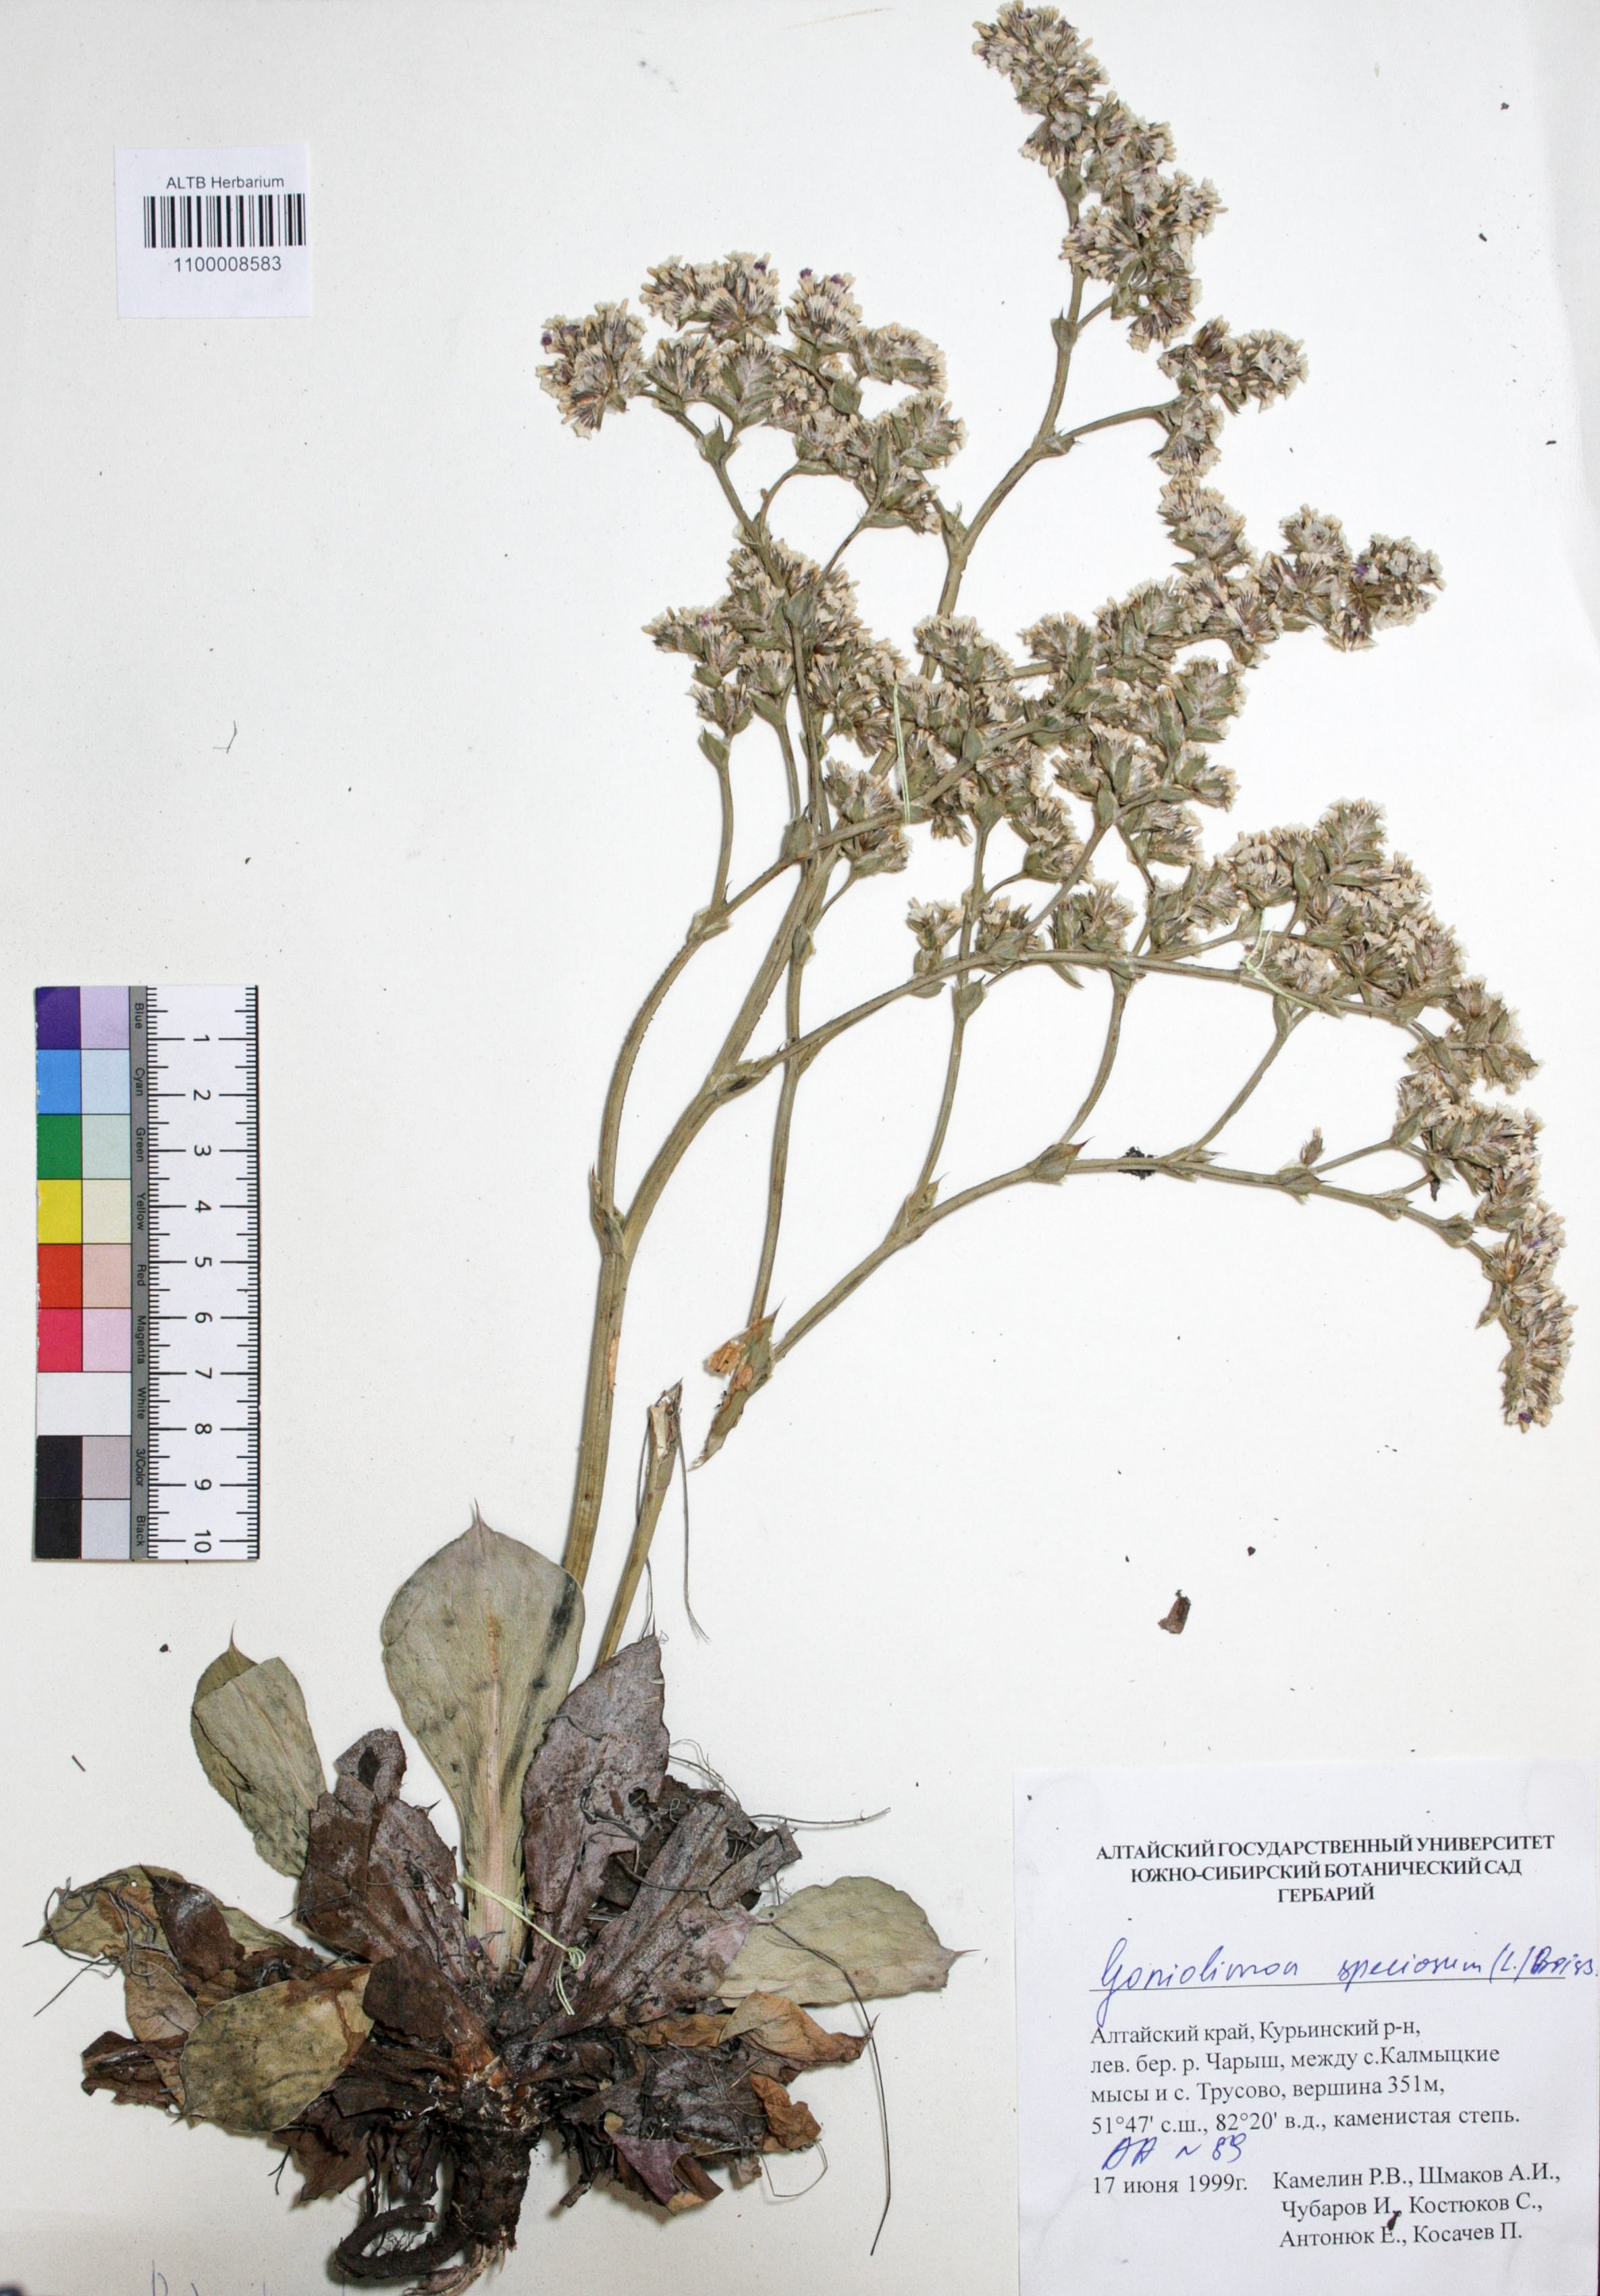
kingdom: Plantae
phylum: Tracheophyta
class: Magnoliopsida
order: Caryophyllales
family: Plumbaginaceae
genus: Goniolimon
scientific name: Goniolimon speciosum
